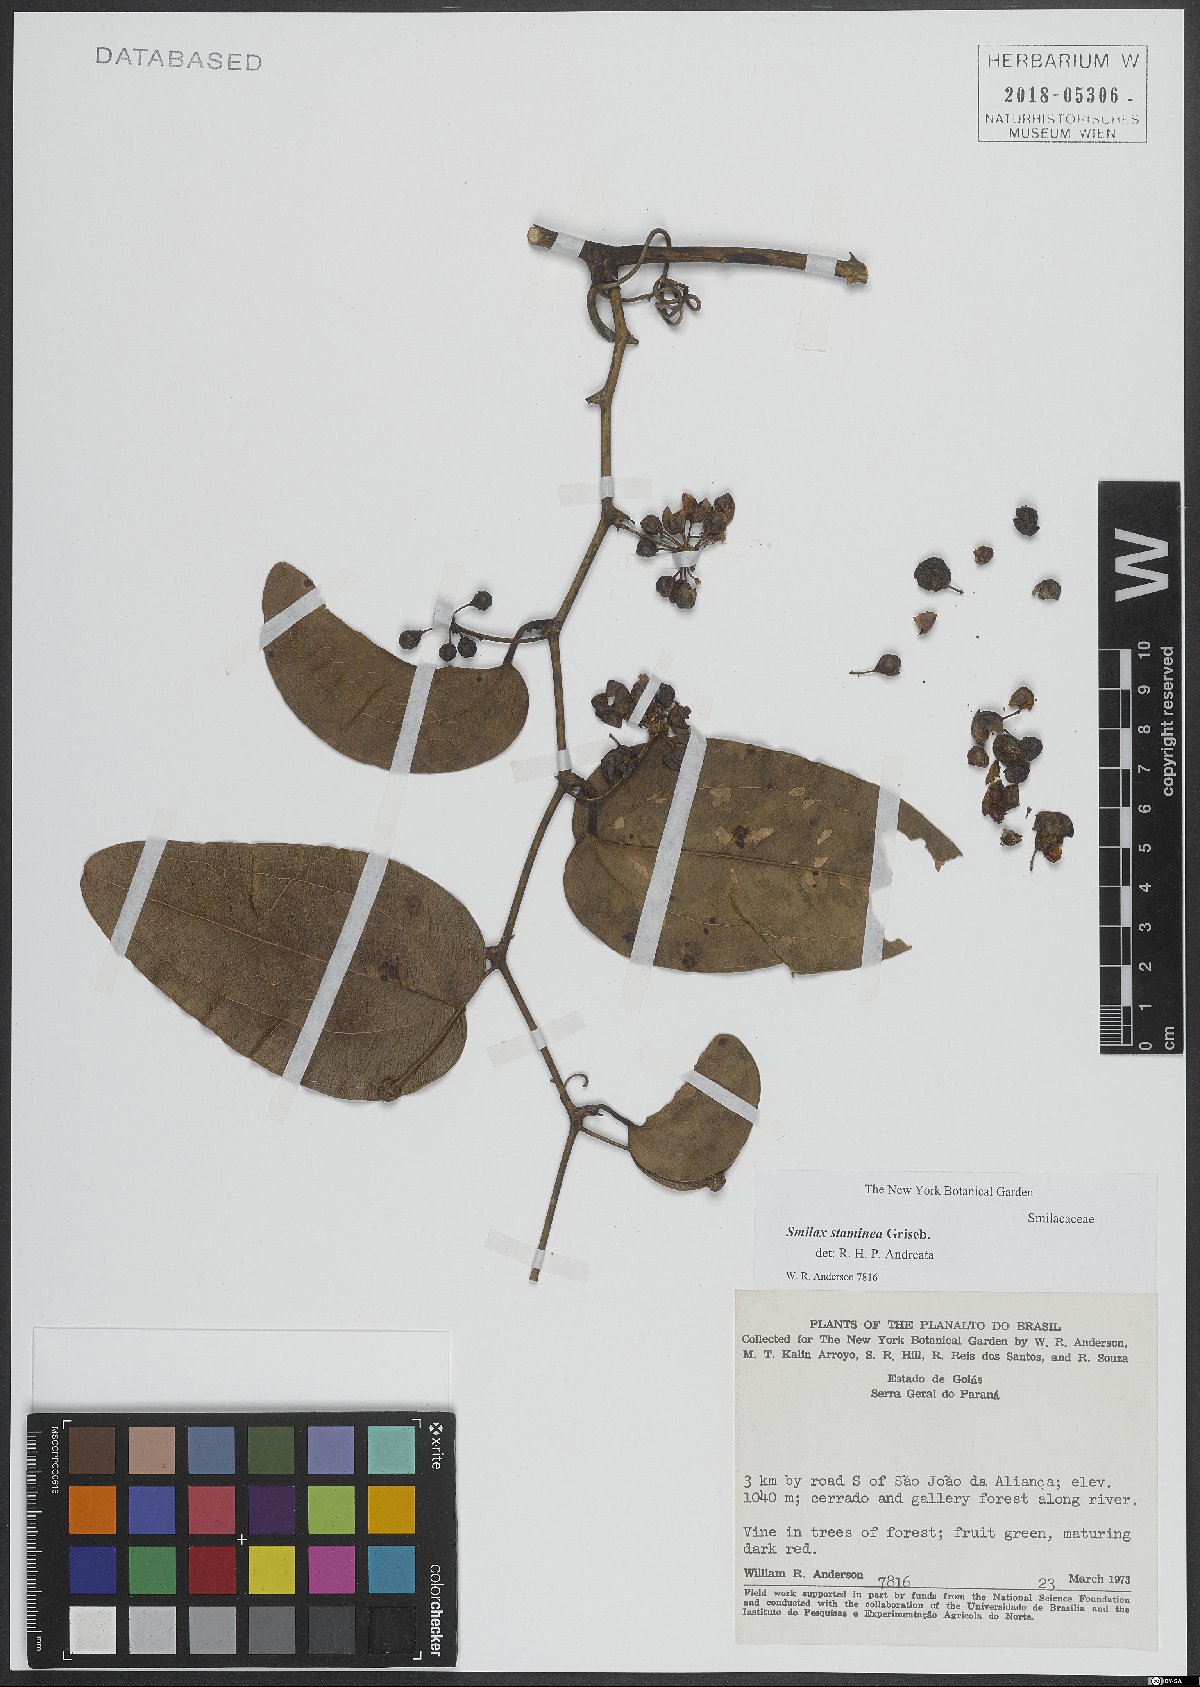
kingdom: Plantae
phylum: Tracheophyta
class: Liliopsida
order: Liliales
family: Smilacaceae
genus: Smilax
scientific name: Smilax domingensis
